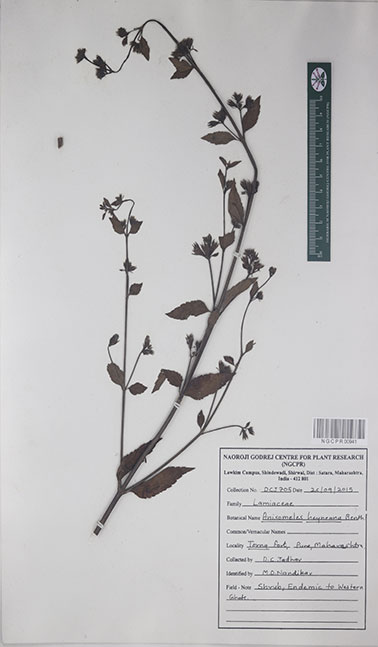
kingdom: Plantae
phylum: Tracheophyta
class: Magnoliopsida
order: Lamiales
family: Lamiaceae
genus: Anisomeles
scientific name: Anisomeles heyneana
